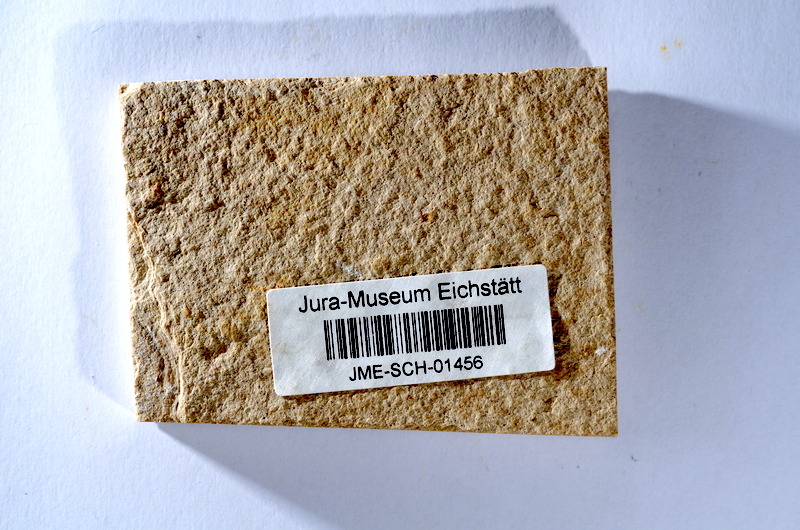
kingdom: Animalia
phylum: Chordata
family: Ascalaboidae
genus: Tharsis
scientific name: Tharsis dubius
